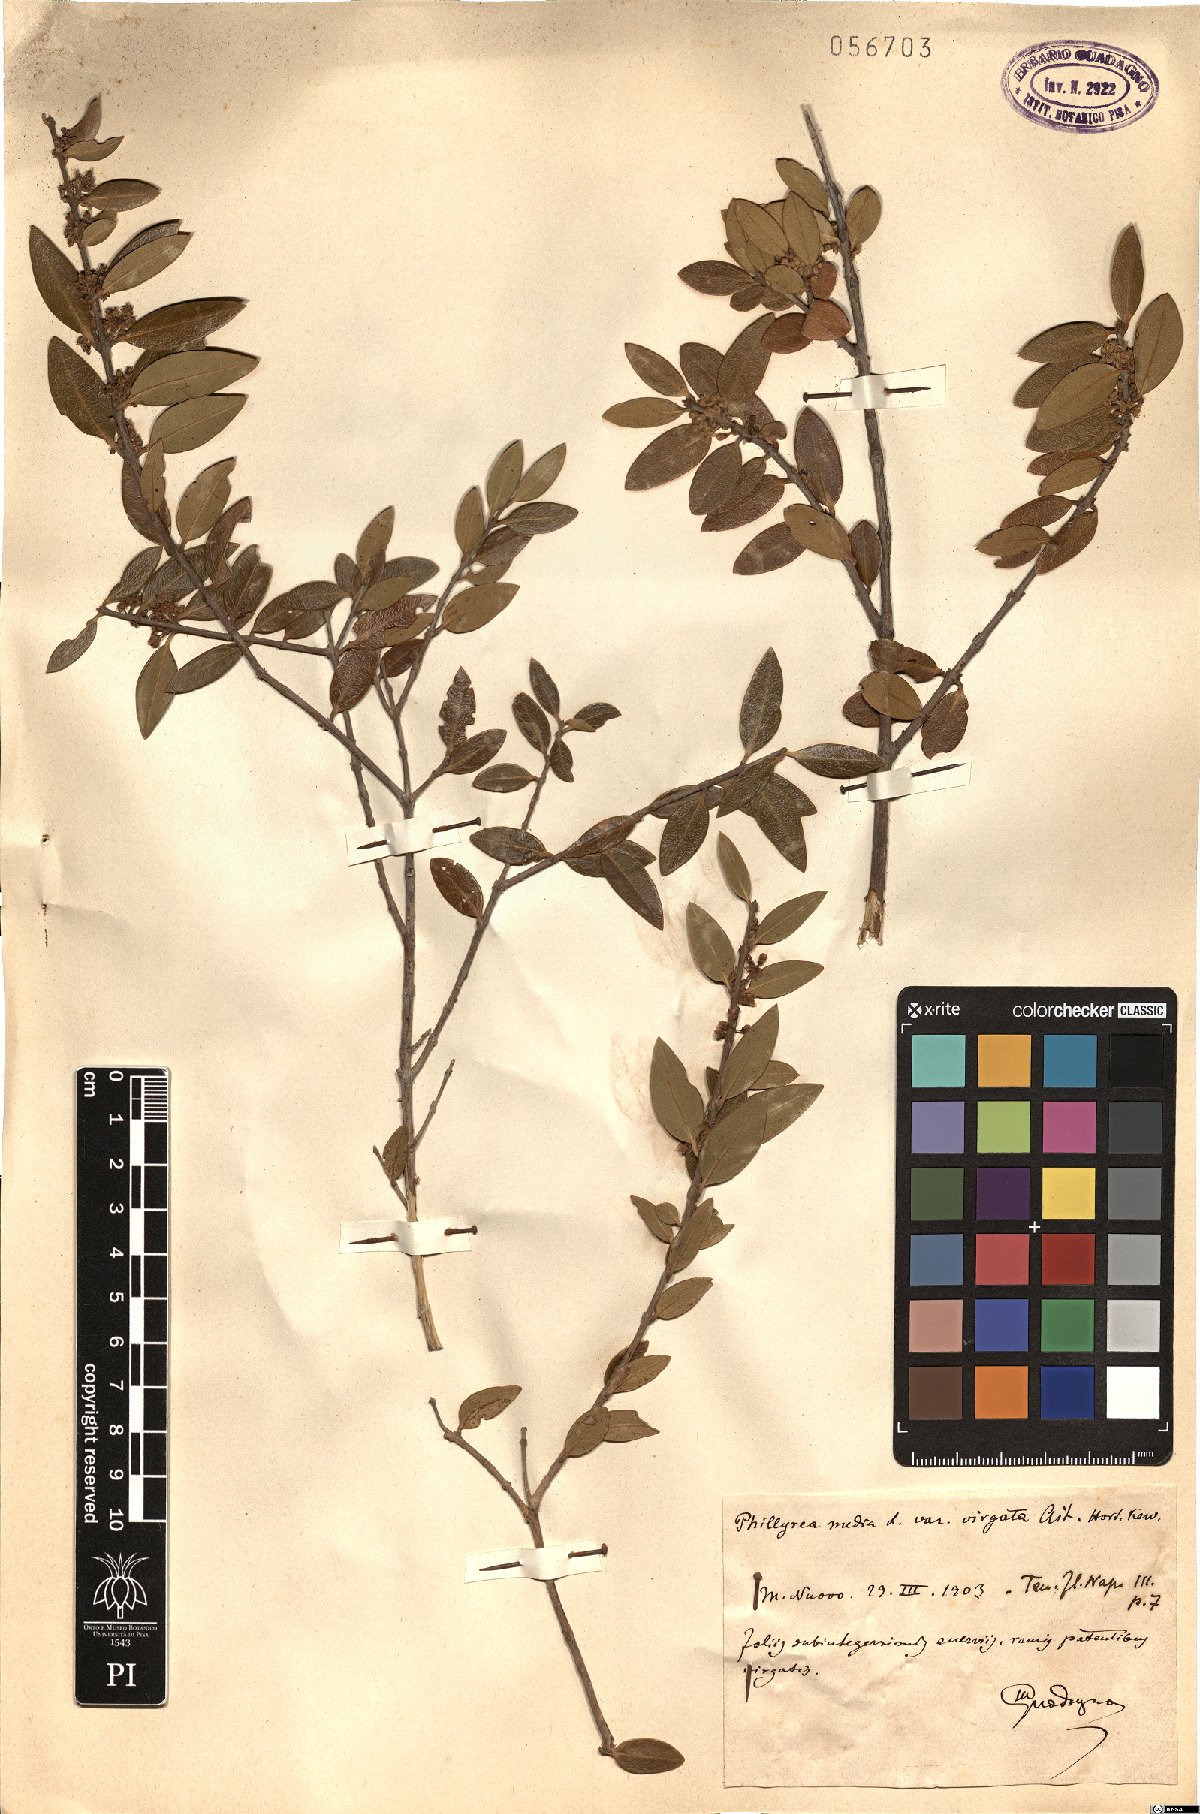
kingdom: Plantae
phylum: Tracheophyta
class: Magnoliopsida
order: Lamiales
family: Oleaceae
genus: Phillyrea
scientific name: Phillyrea latifolia
